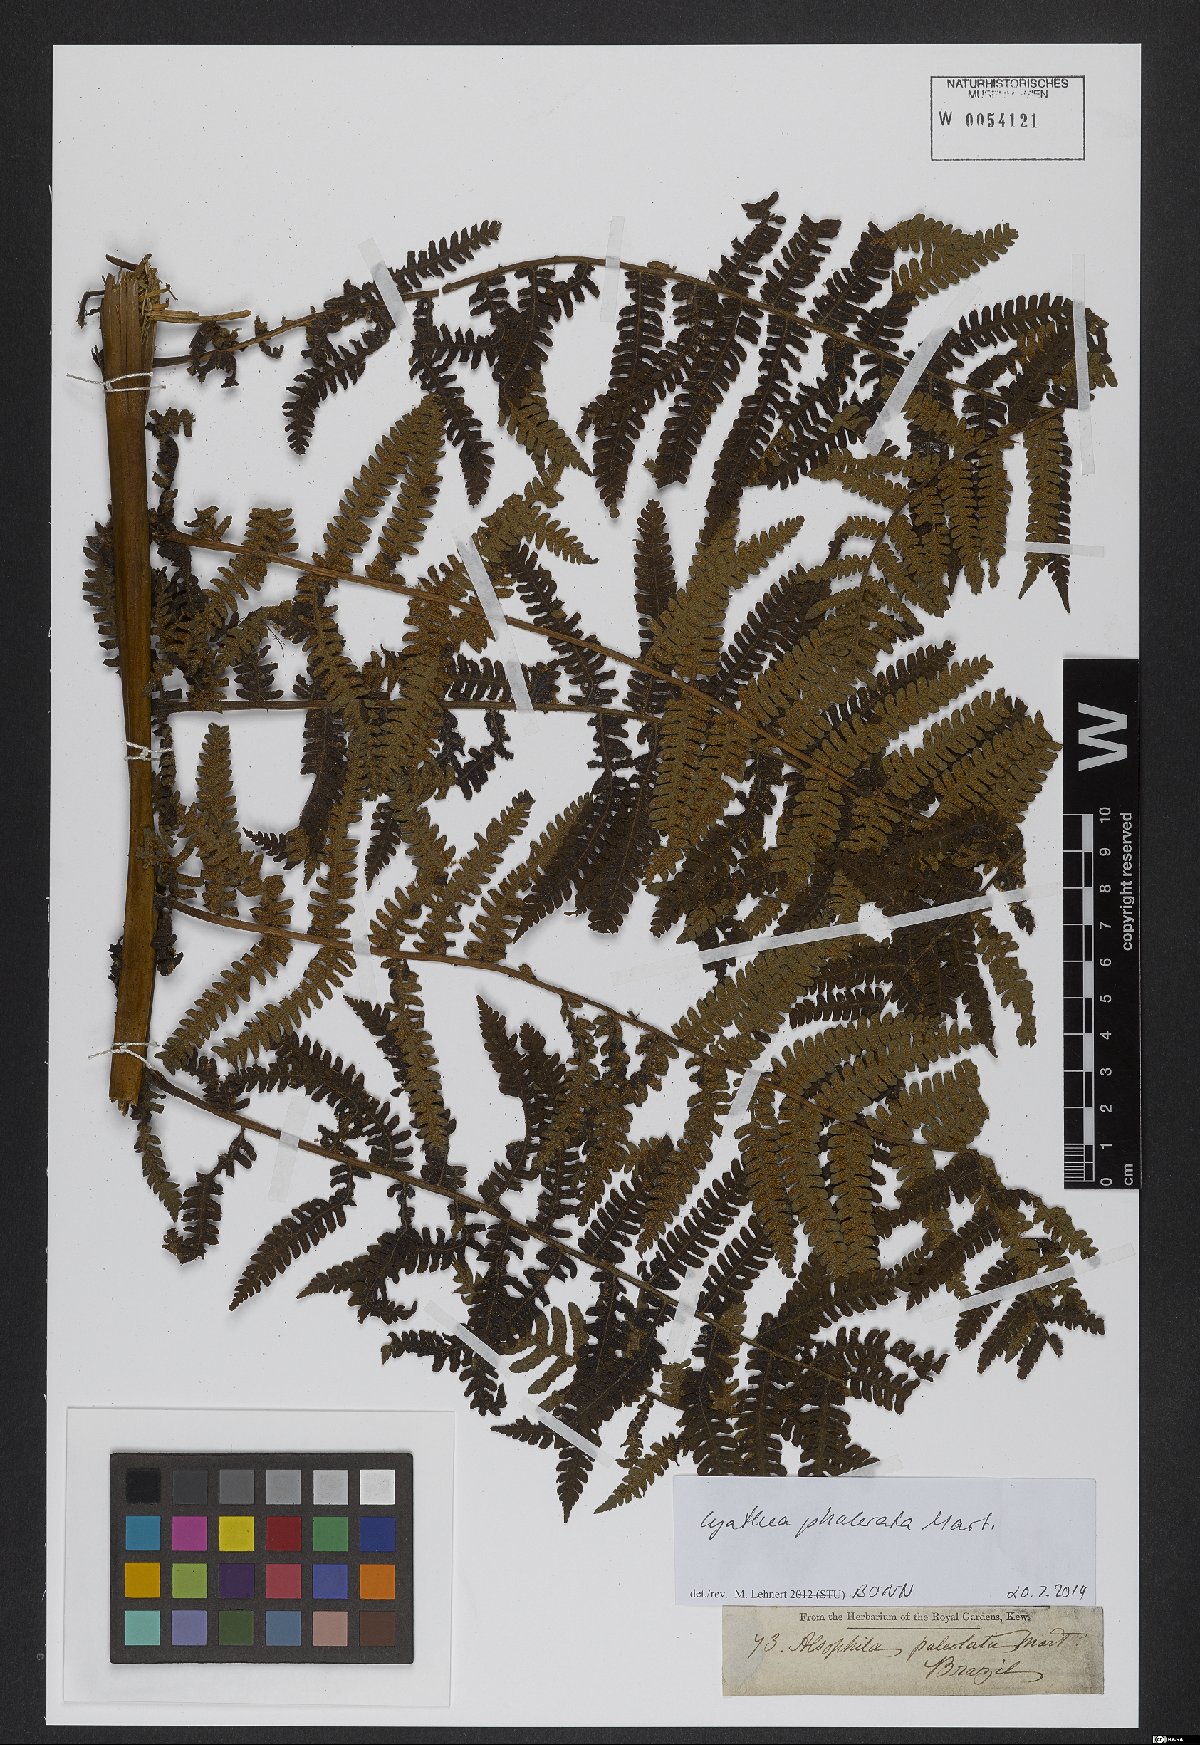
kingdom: Plantae
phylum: Tracheophyta
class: Polypodiopsida
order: Cyatheales
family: Cyatheaceae
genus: Cyathea
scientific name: Cyathea phalerata
